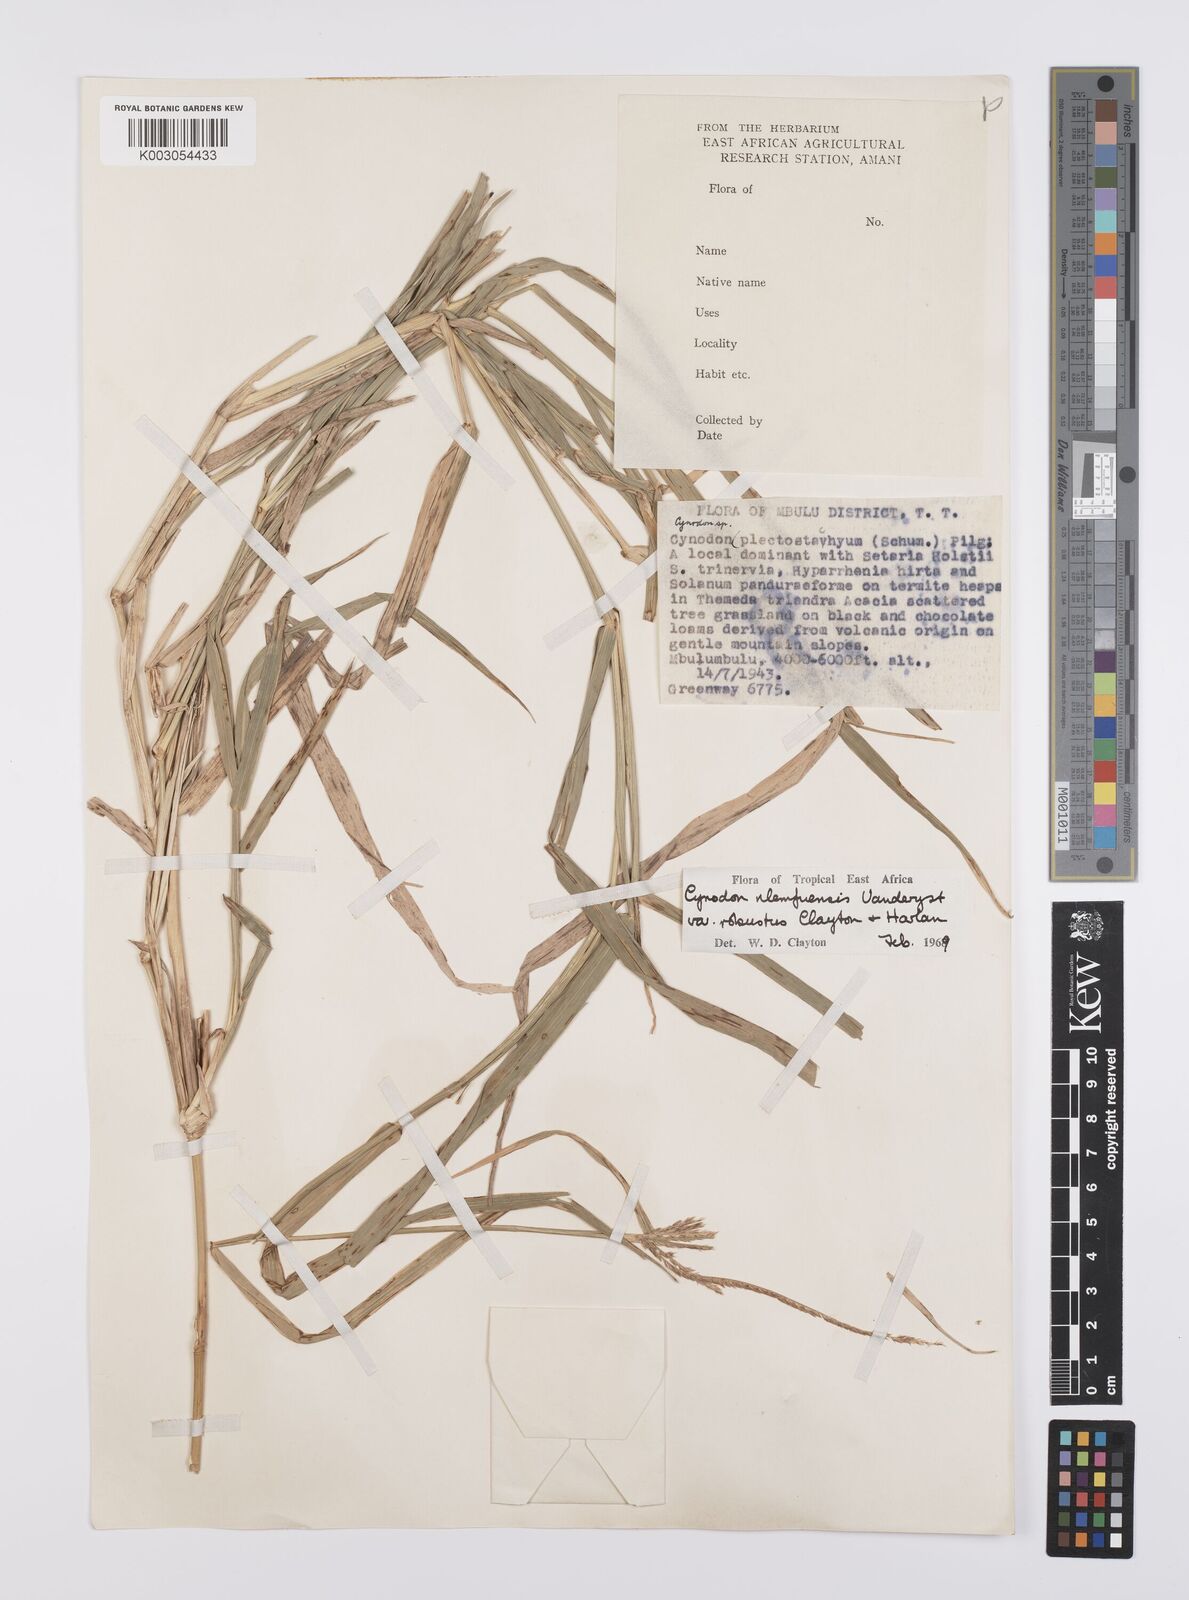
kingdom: Plantae
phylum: Tracheophyta
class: Liliopsida
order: Poales
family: Poaceae
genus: Cynodon
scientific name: Cynodon nlemfuensis
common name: African bermudagrass
